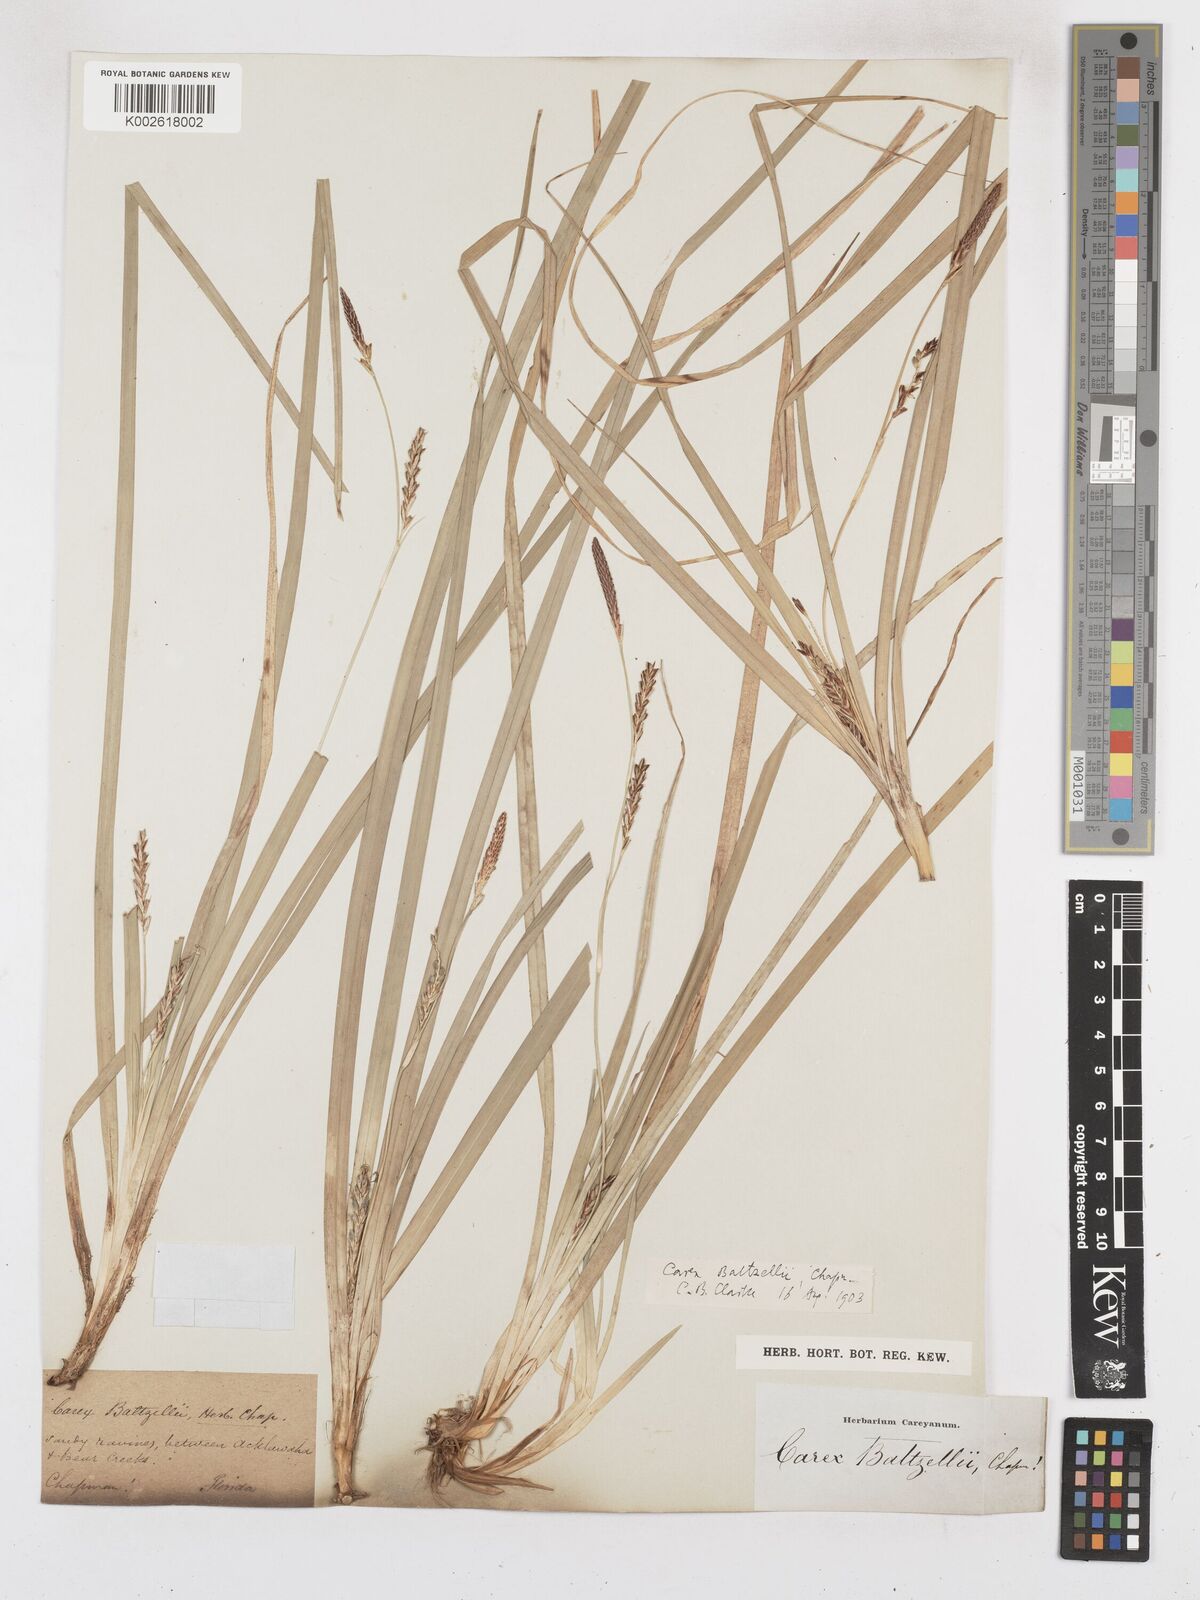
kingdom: Plantae
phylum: Tracheophyta
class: Liliopsida
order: Poales
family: Cyperaceae
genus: Carex
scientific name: Carex baltzellii
